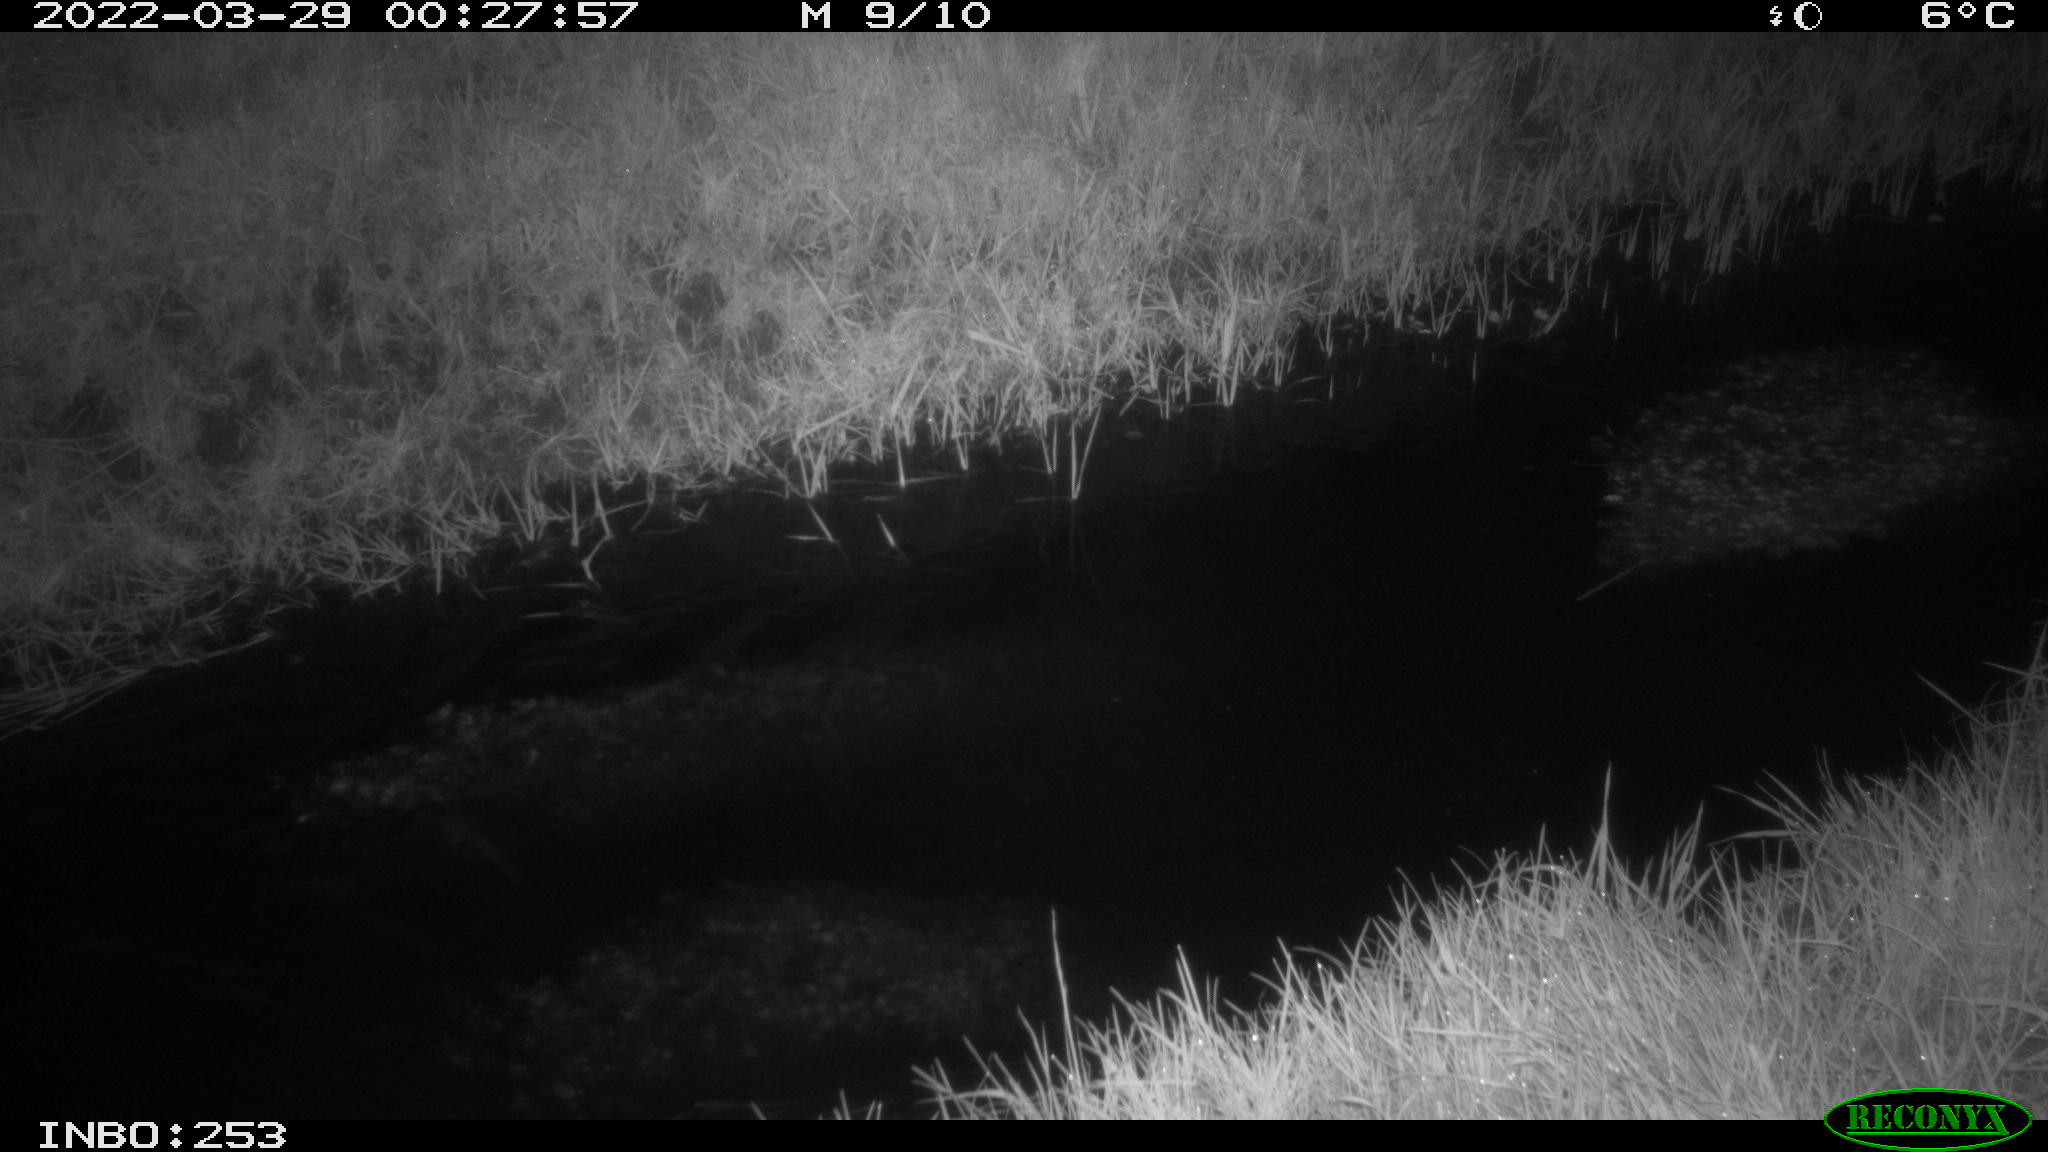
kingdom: Animalia
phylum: Chordata
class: Aves
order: Anseriformes
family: Anatidae
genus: Anas
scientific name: Anas platyrhynchos
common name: Mallard
